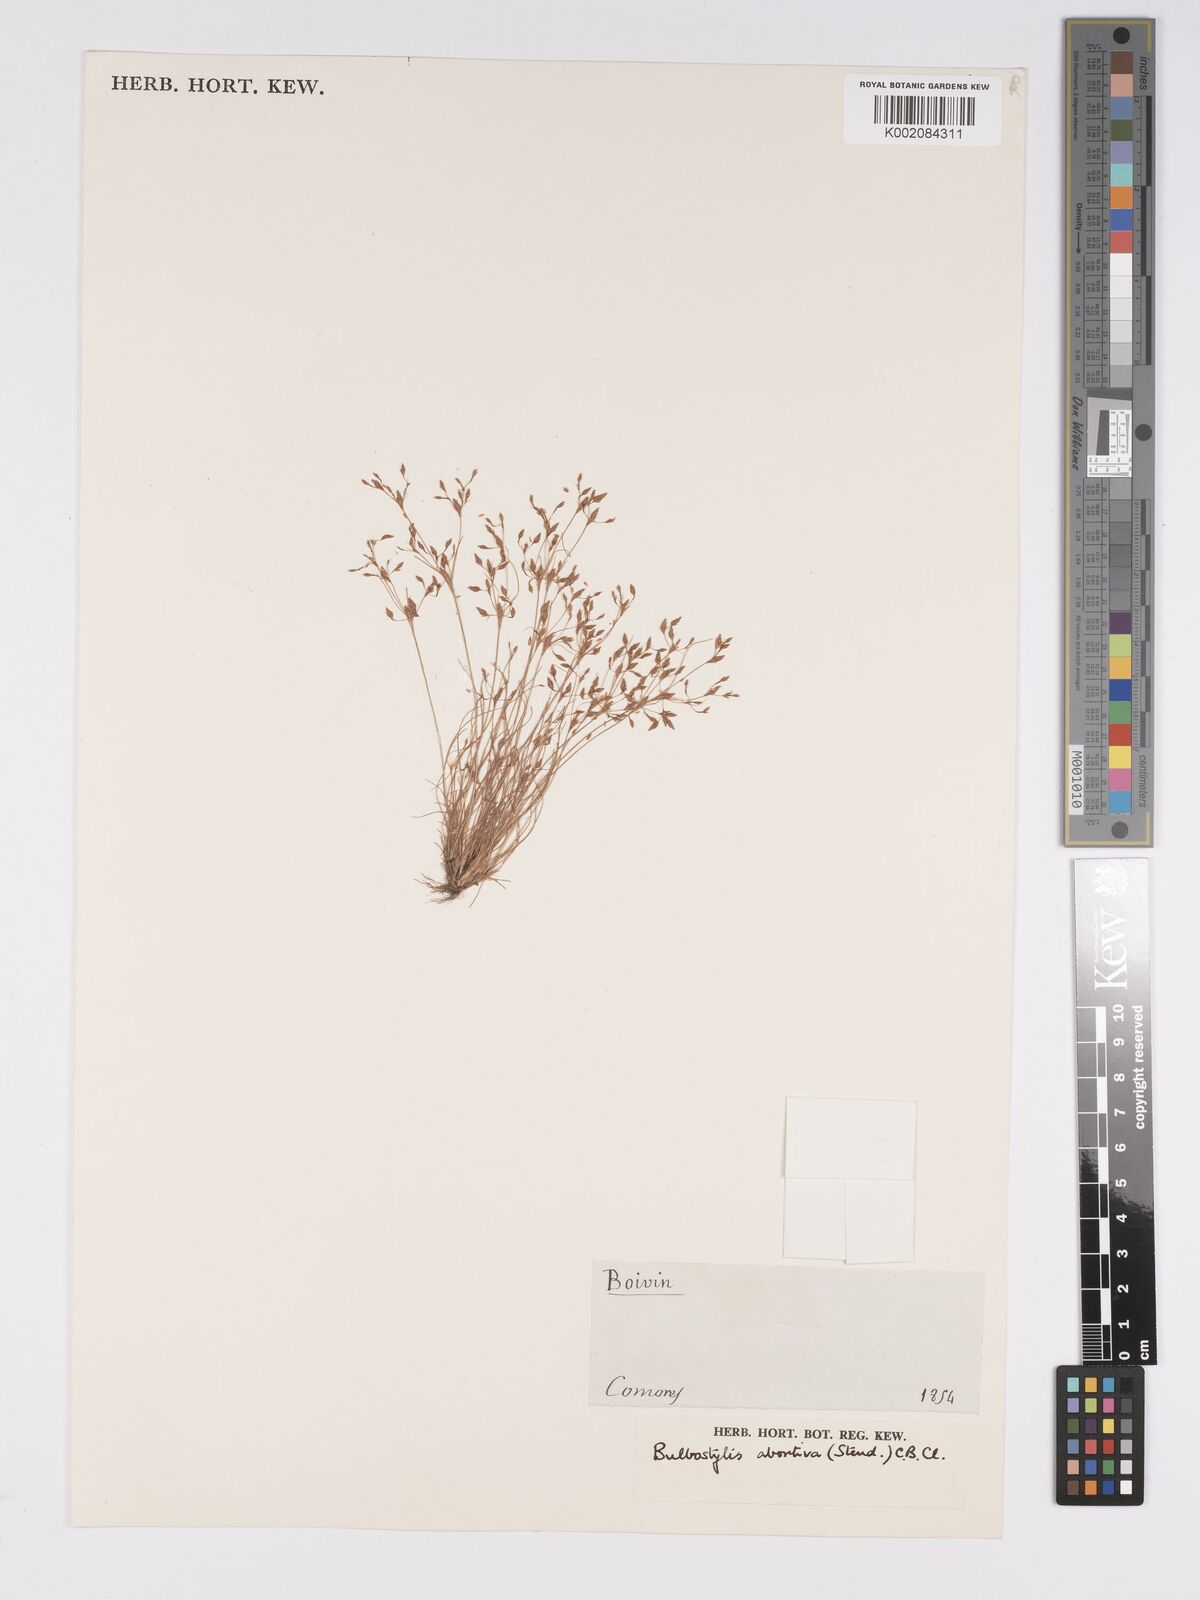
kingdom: Plantae
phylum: Tracheophyta
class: Liliopsida
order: Poales
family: Cyperaceae
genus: Bulbostylis
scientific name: Bulbostylis abortiva
